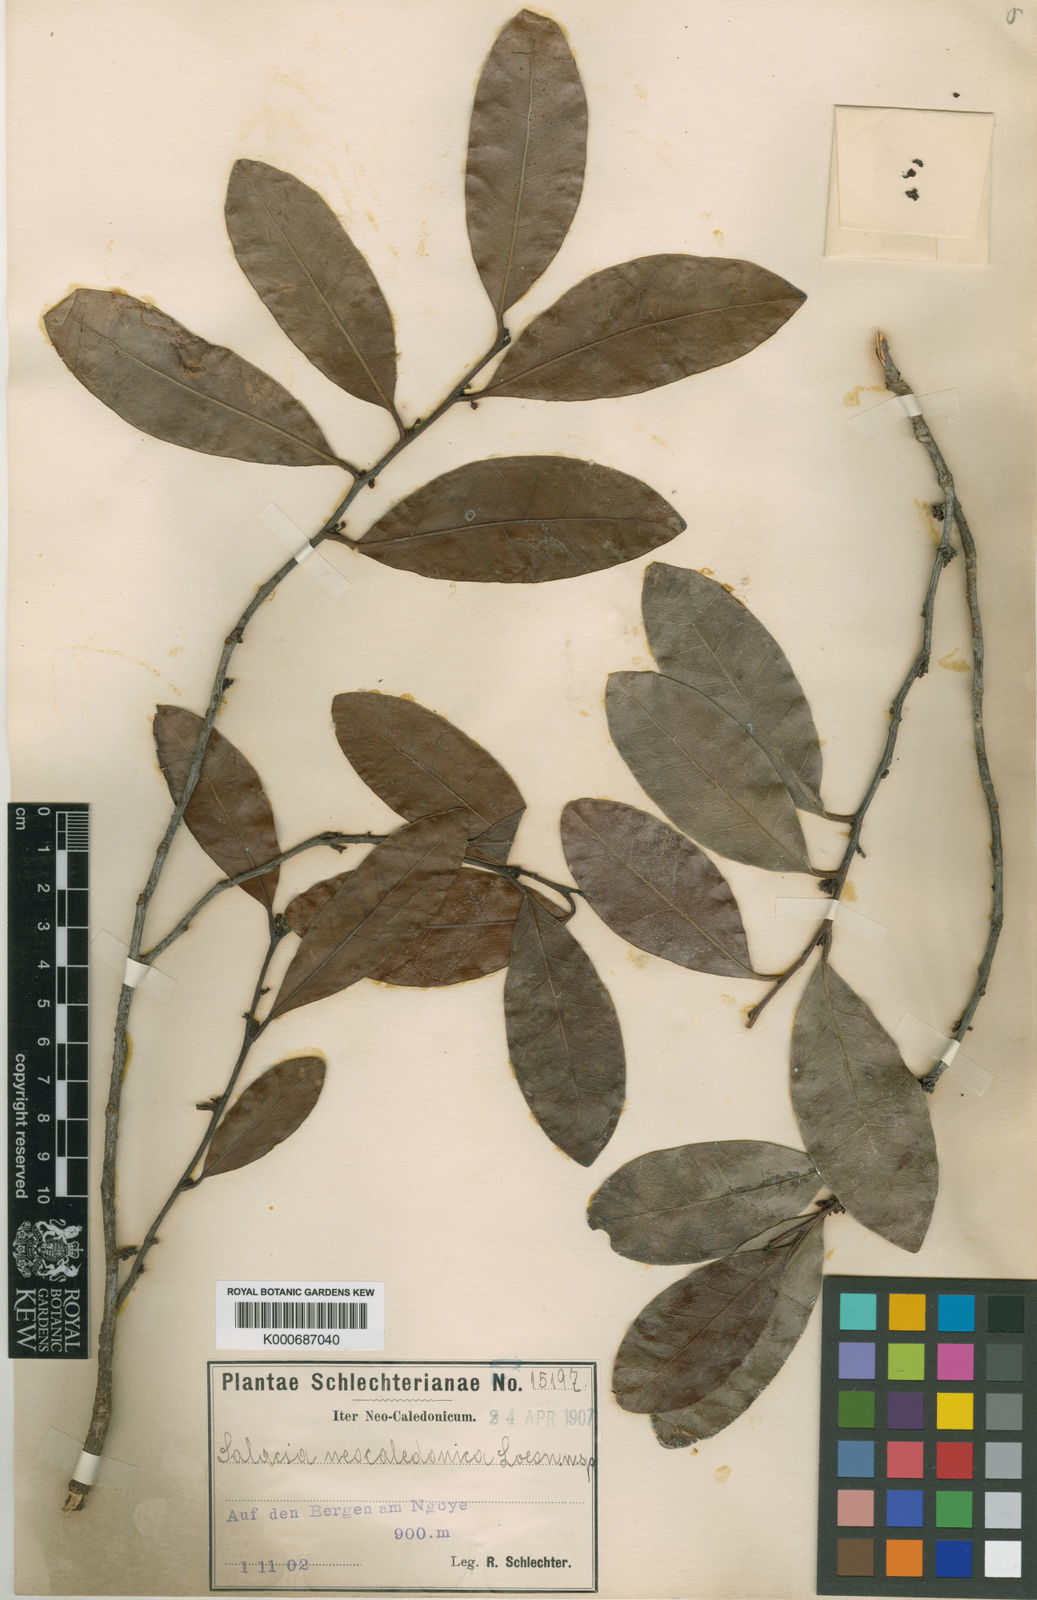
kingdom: Plantae
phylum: Tracheophyta
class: Magnoliopsida
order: Celastrales
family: Celastraceae
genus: Dicarpellum
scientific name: Dicarpellum pancheri
